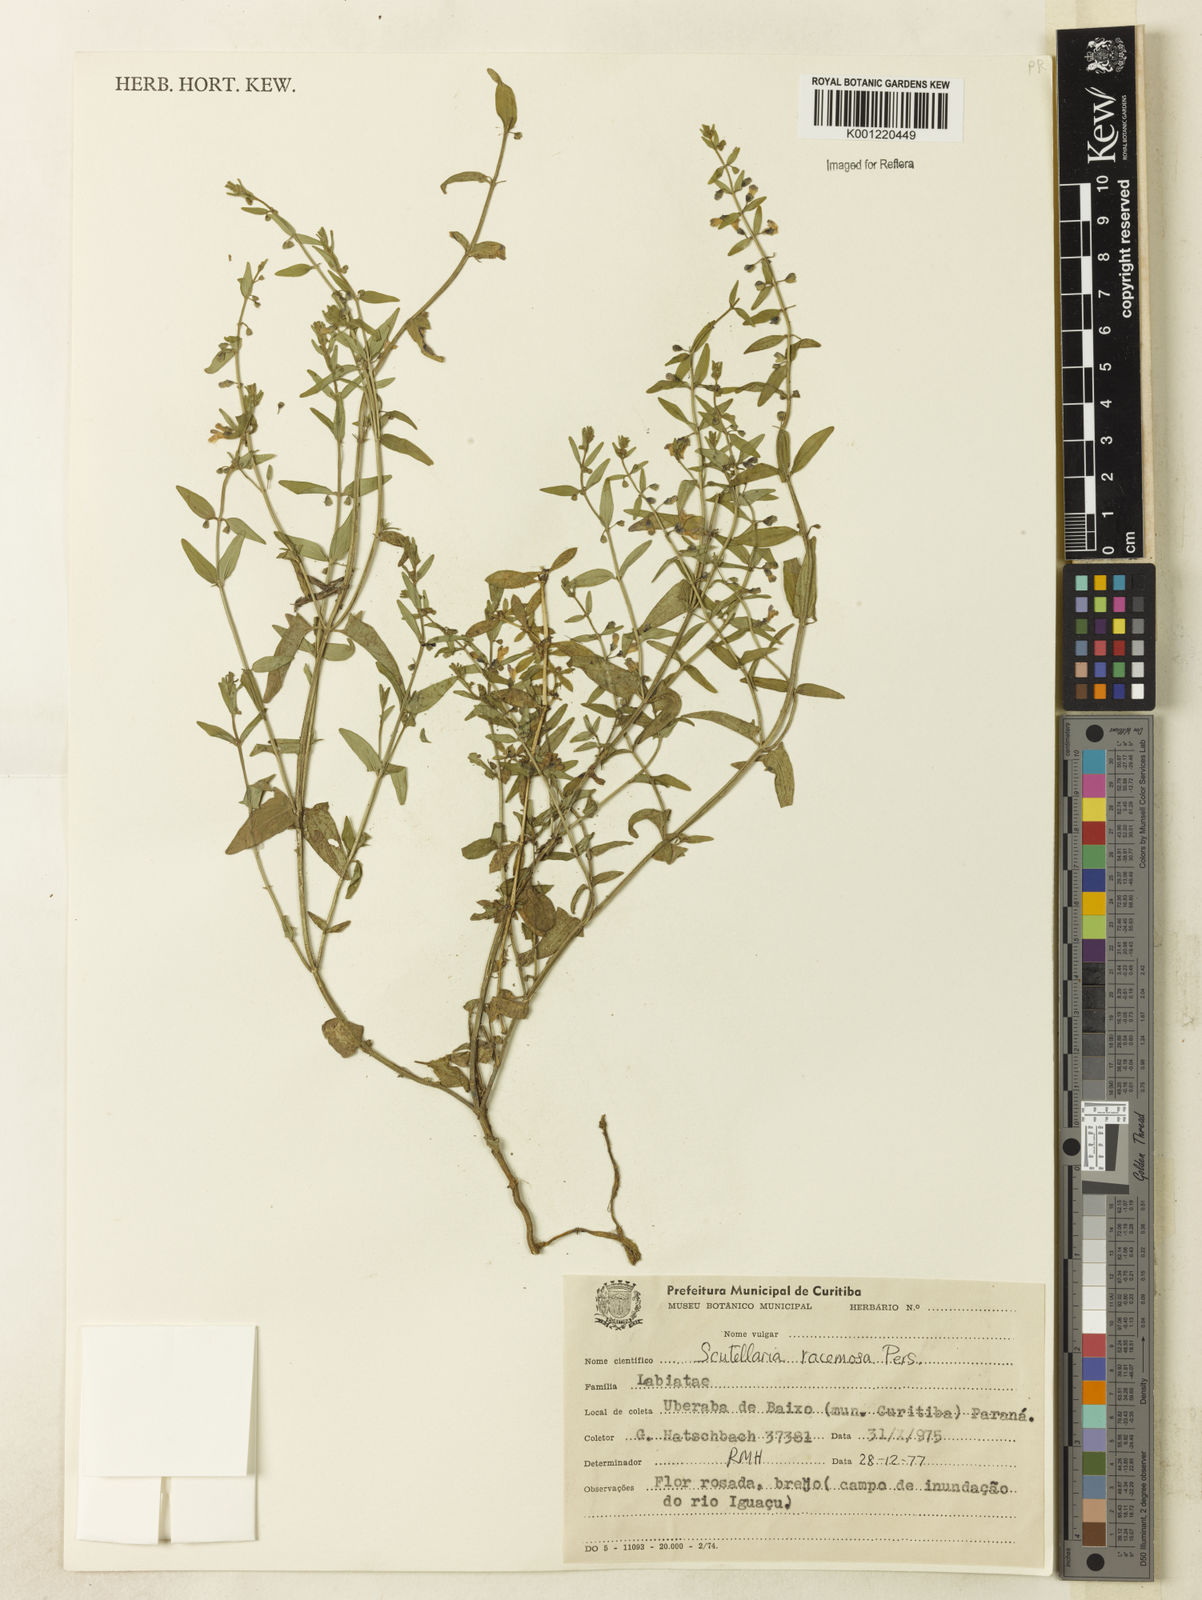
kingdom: Plantae
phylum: Tracheophyta
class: Magnoliopsida
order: Lamiales
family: Lamiaceae
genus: Scutellaria
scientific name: Scutellaria racemosa
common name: South american skullcap
